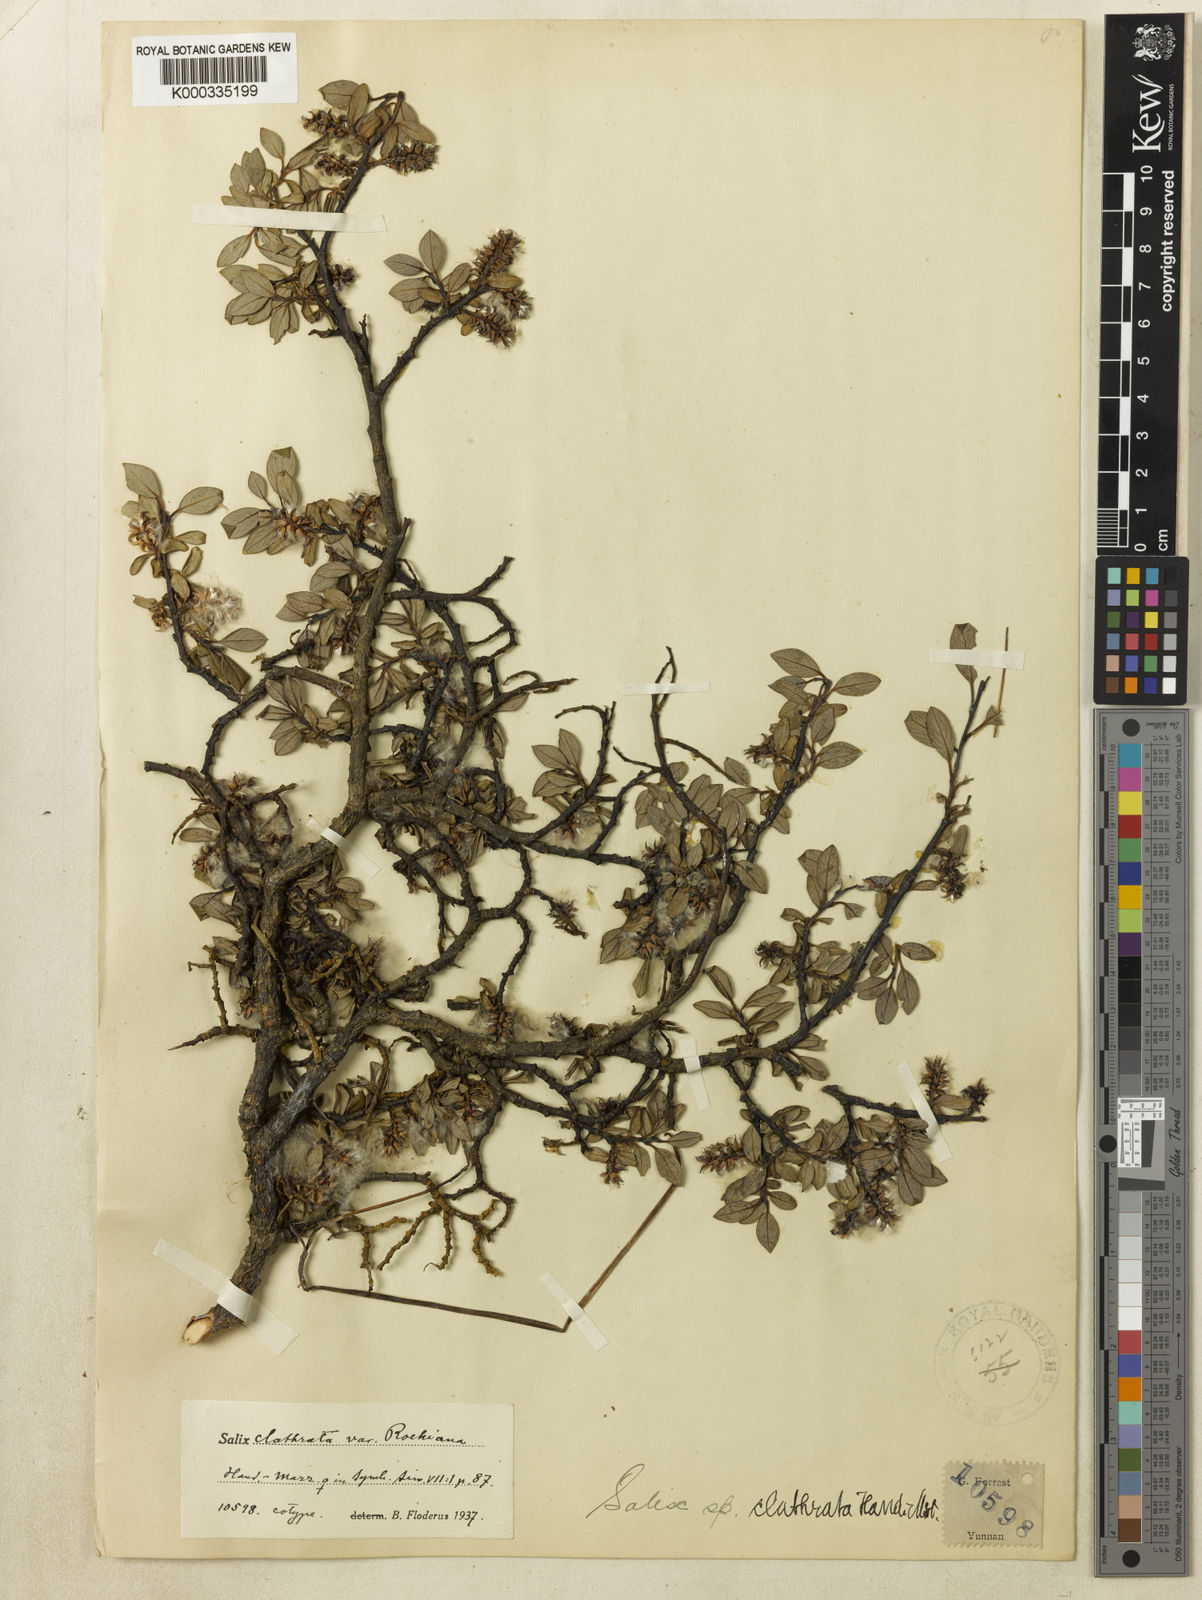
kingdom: Plantae
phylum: Tracheophyta
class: Magnoliopsida
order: Malpighiales
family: Salicaceae
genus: Salix
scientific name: Salix clathrata
